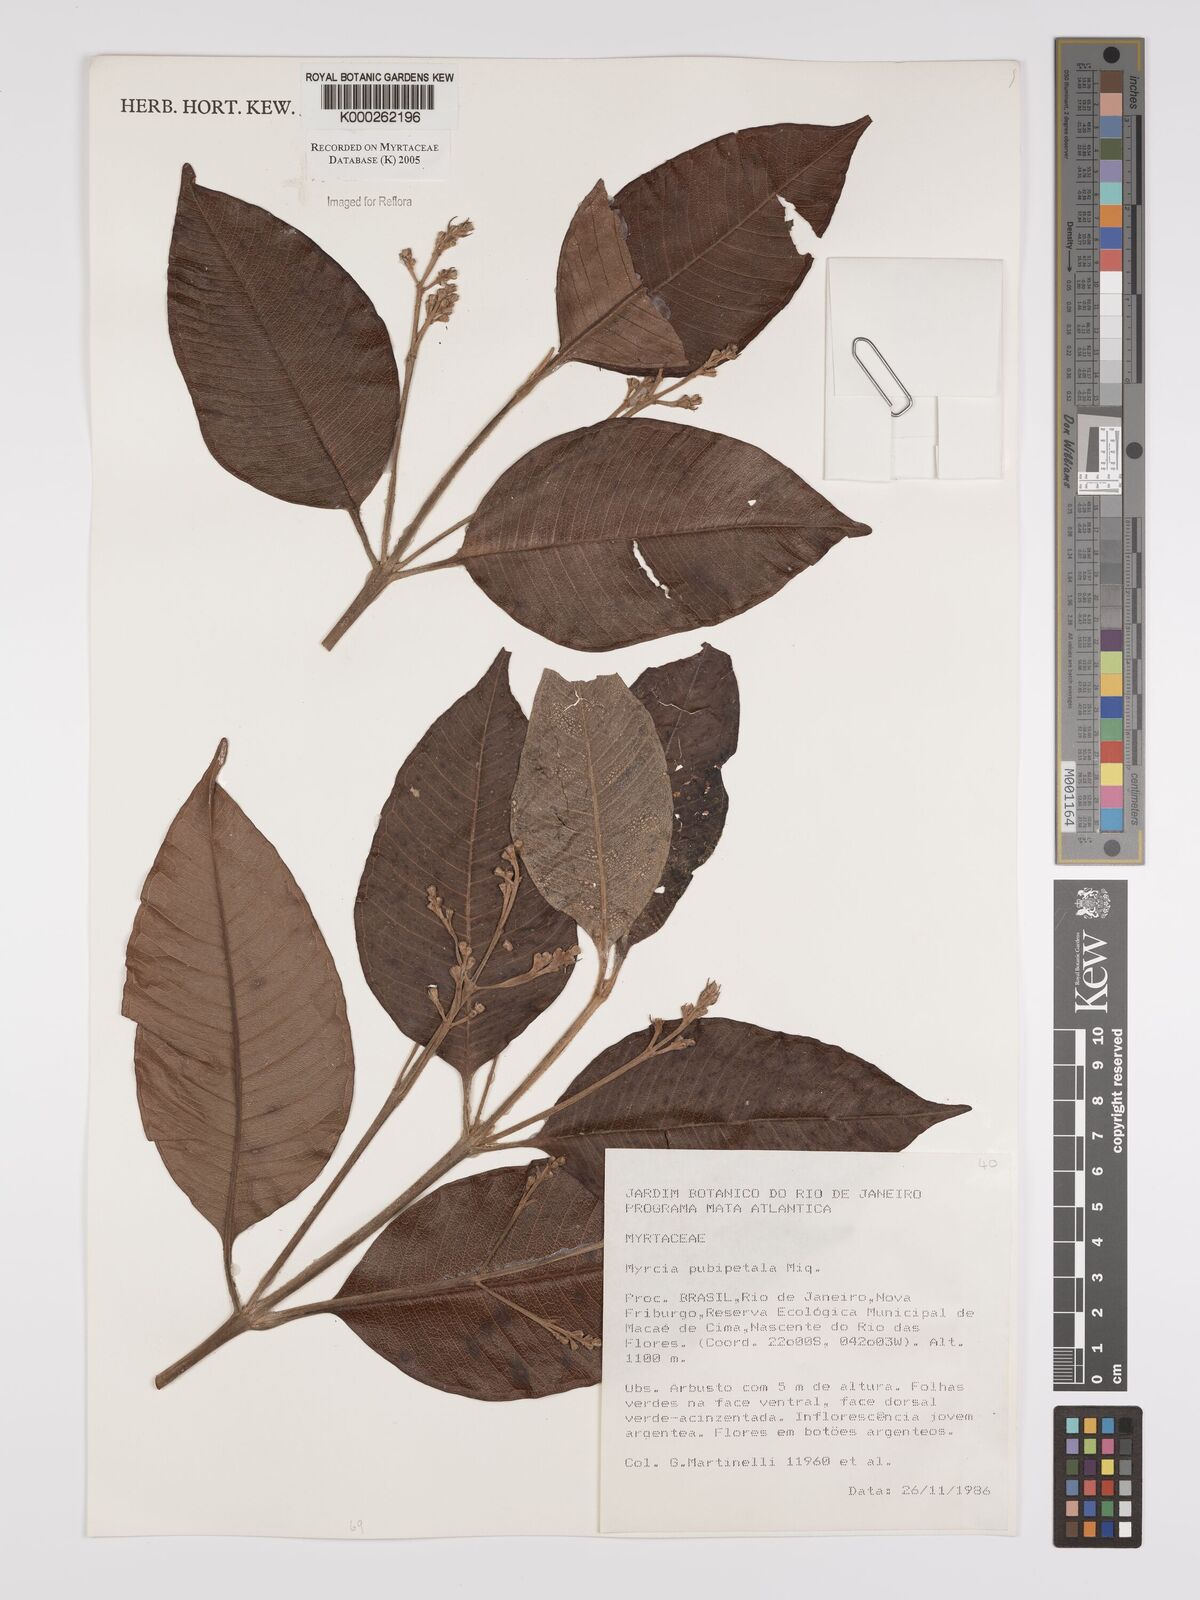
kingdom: Plantae
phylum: Tracheophyta
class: Magnoliopsida
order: Myrtales
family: Myrtaceae
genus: Myrcia
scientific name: Myrcia pubipetala
